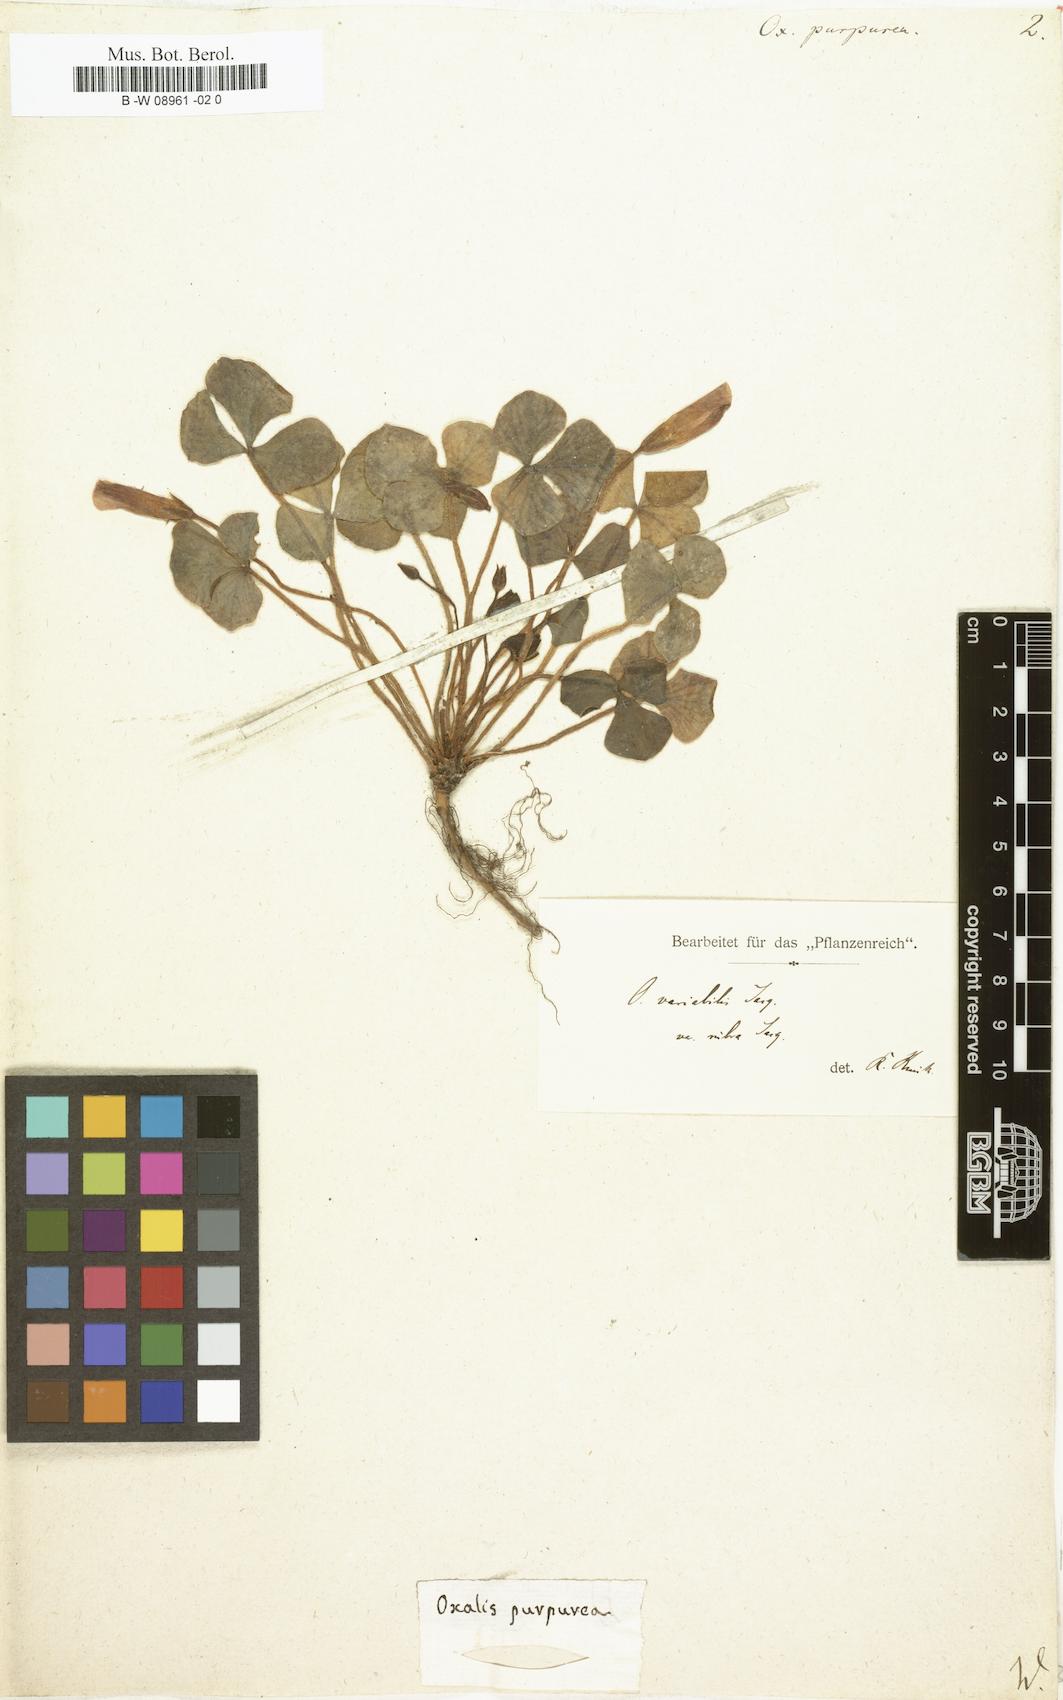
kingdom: Plantae
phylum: Tracheophyta
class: Magnoliopsida
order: Oxalidales
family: Oxalidaceae
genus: Oxalis
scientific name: Oxalis purpurea
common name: Purple woodsorrel
